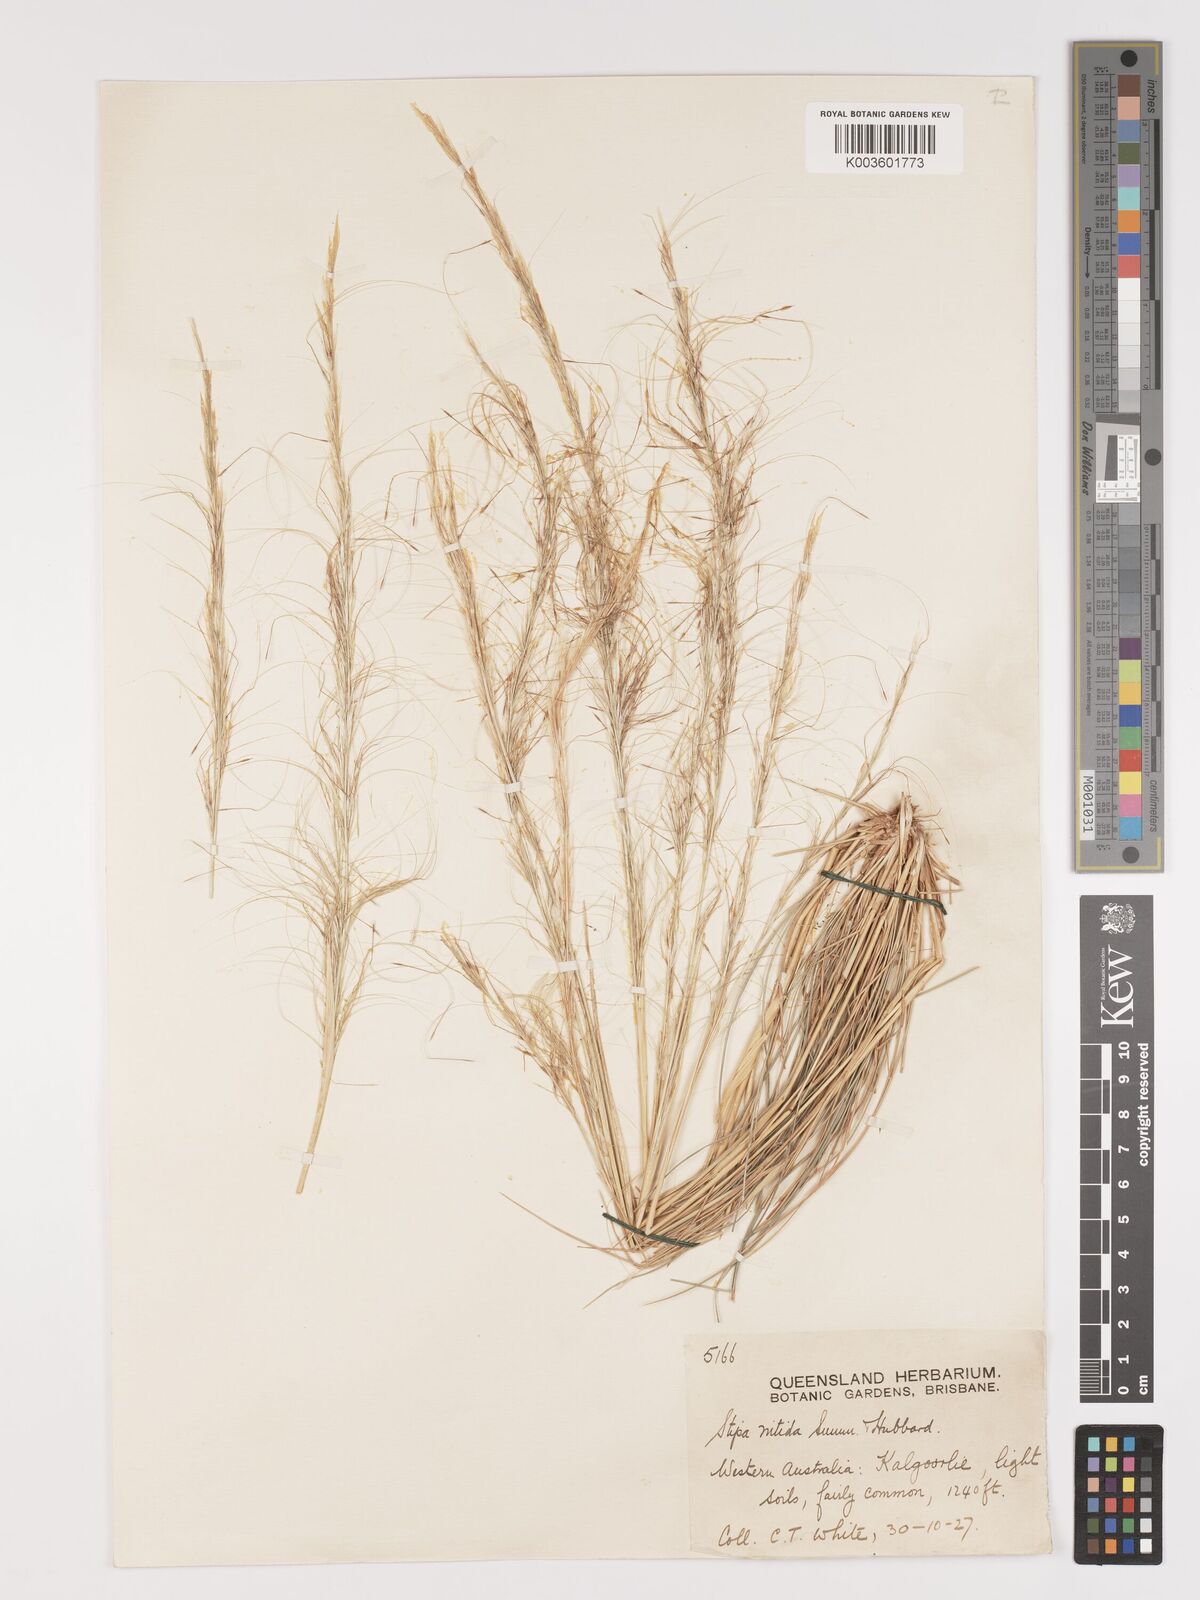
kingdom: Plantae
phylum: Tracheophyta
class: Liliopsida
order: Poales
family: Poaceae
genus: Austrostipa
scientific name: Austrostipa nitida
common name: Balcarra grass
